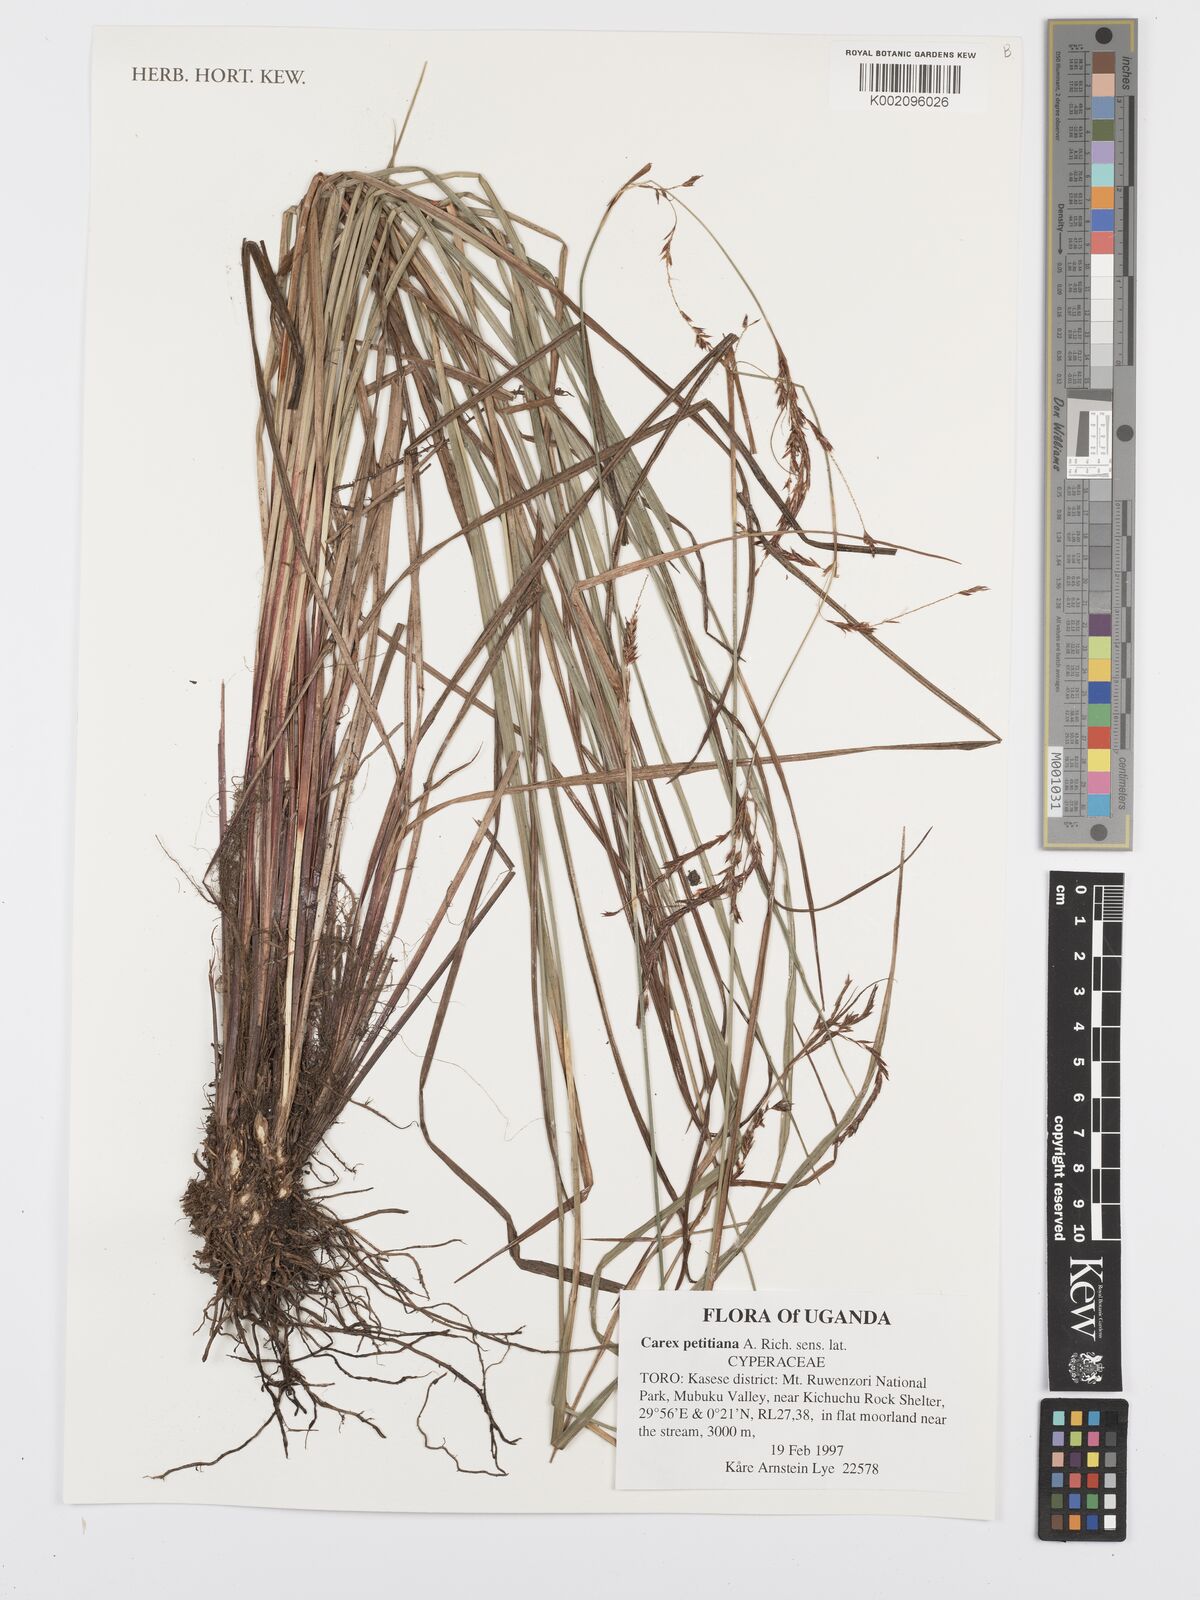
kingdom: Plantae
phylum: Tracheophyta
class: Liliopsida
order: Poales
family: Cyperaceae
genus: Carex
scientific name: Carex petitiana
